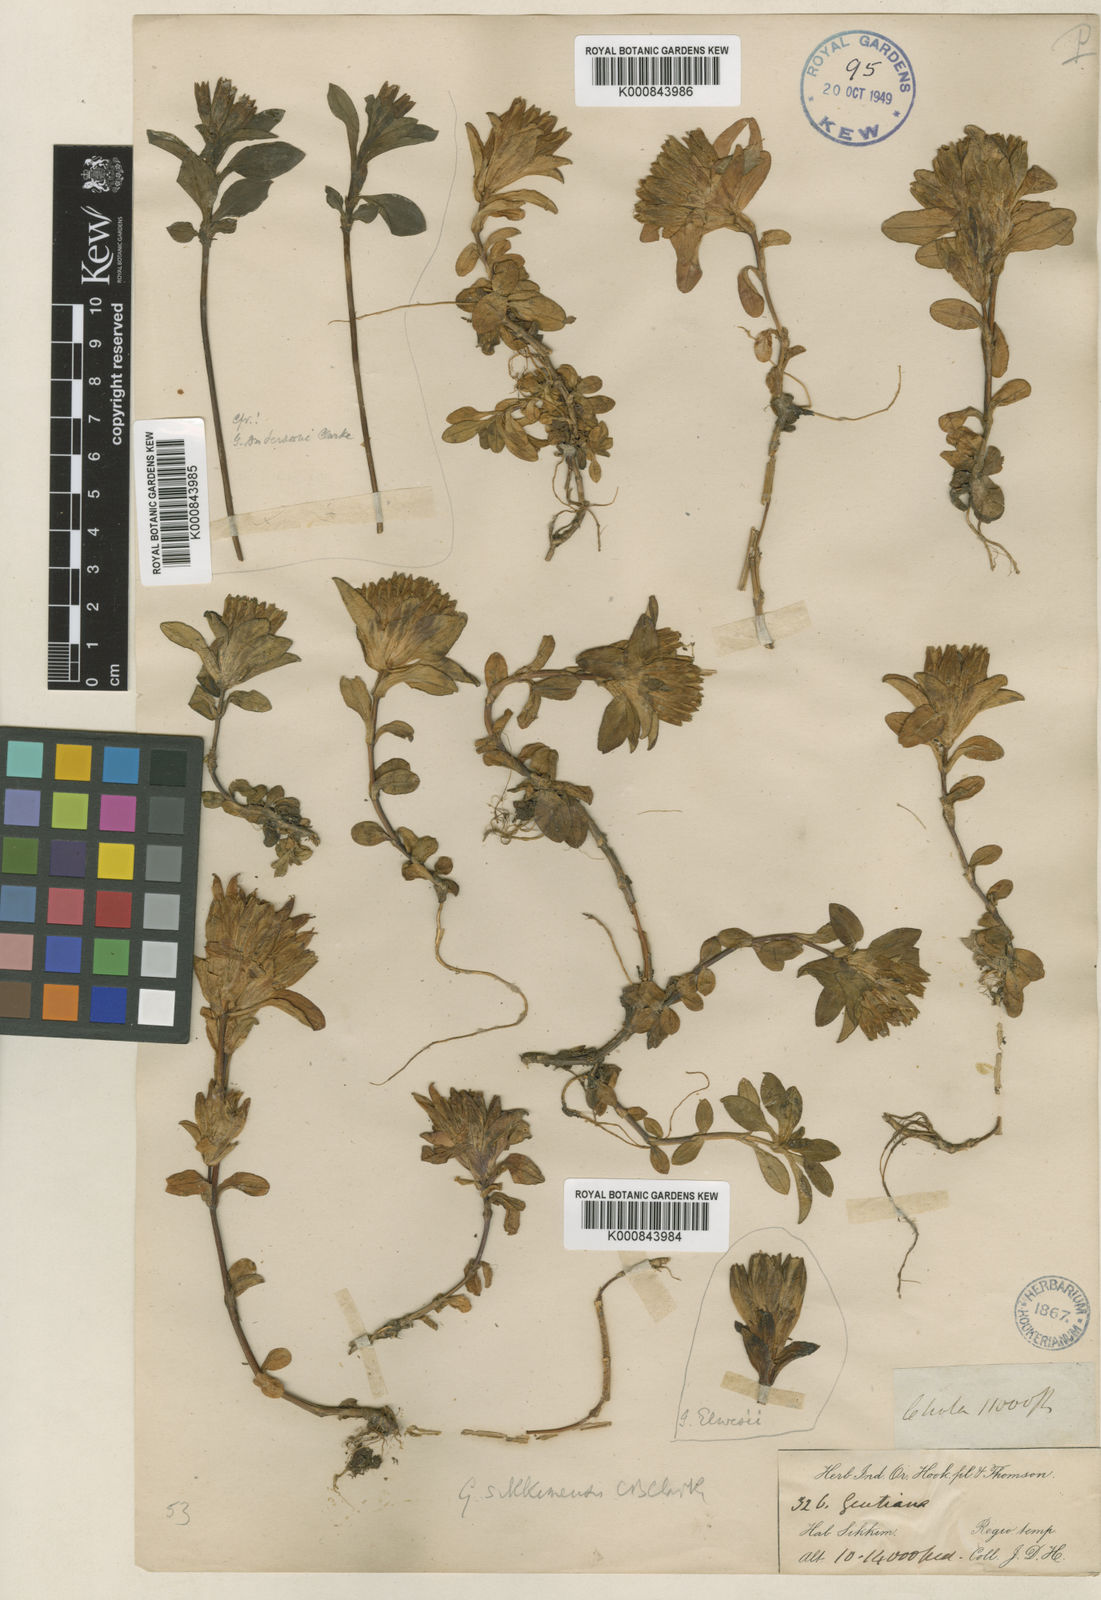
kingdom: Plantae
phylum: Tracheophyta
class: Magnoliopsida
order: Gentianales
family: Gentianaceae
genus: Gentiana
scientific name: Gentiana sikkimensis
